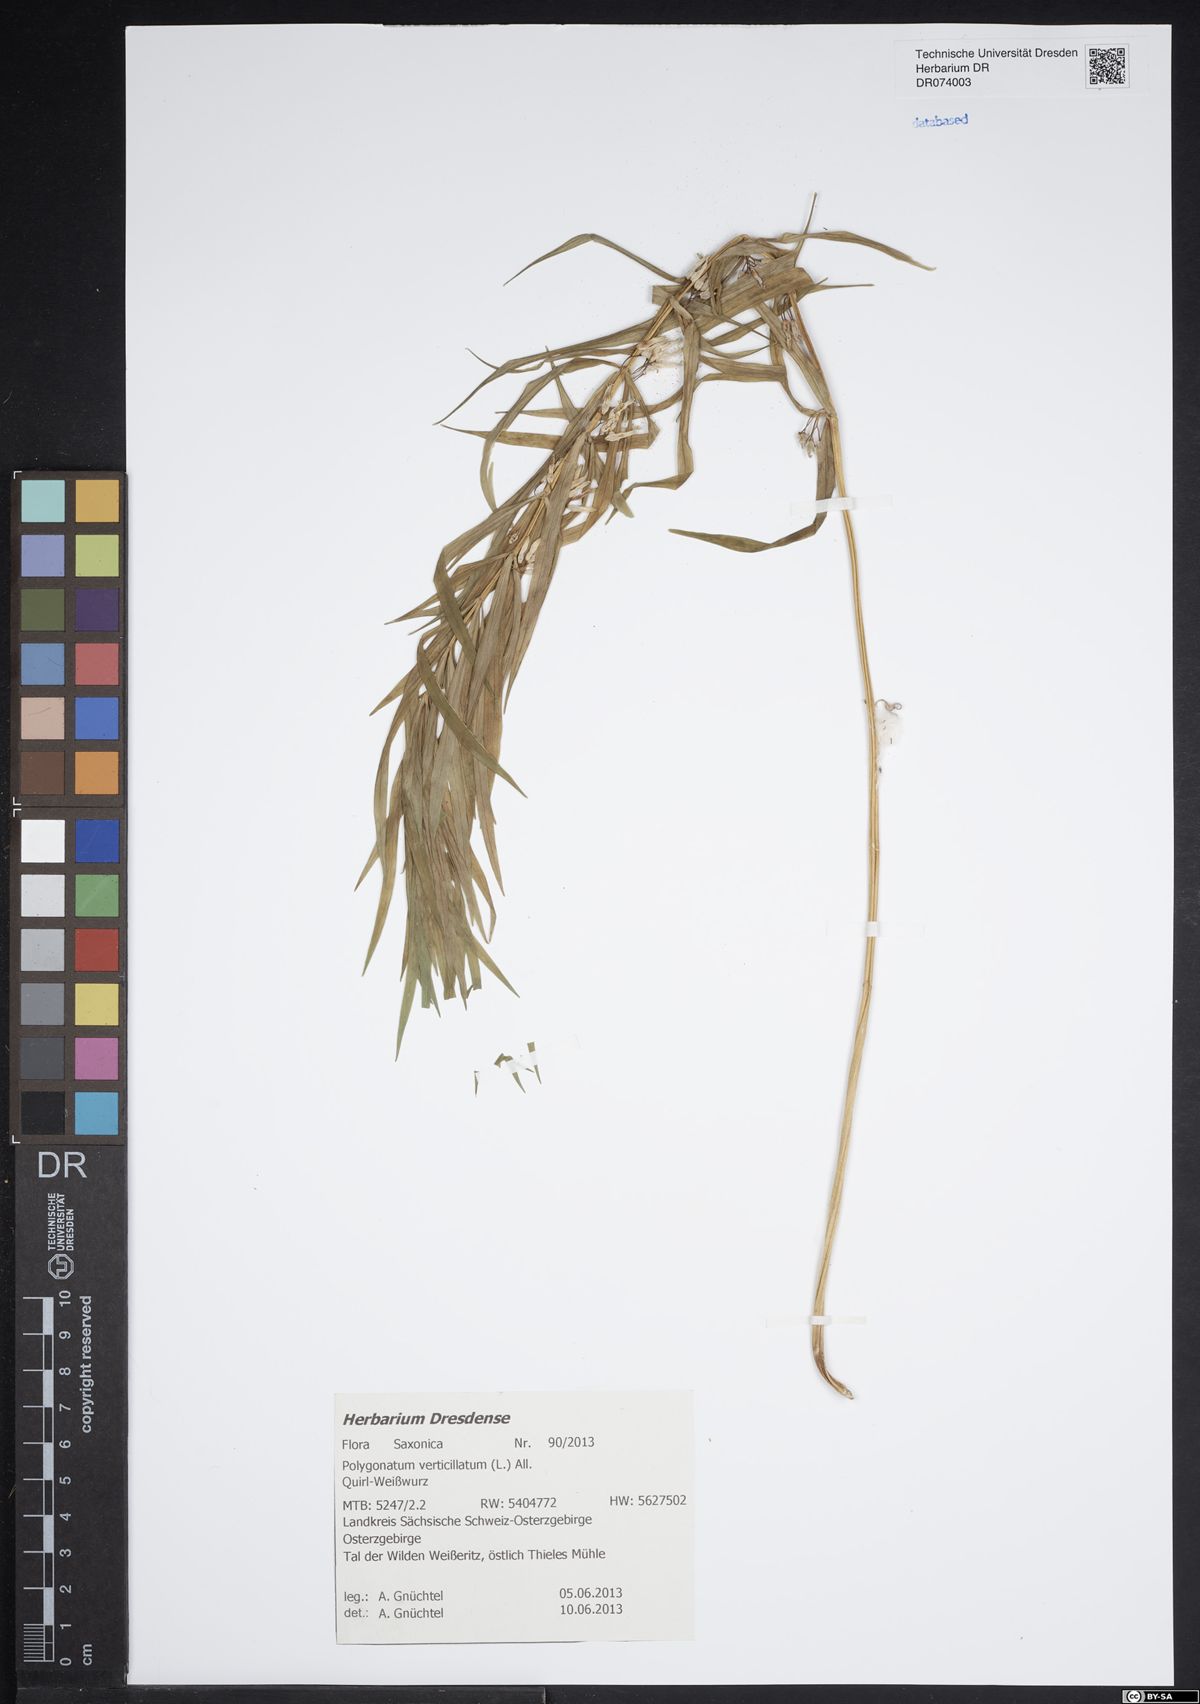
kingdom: Plantae
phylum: Tracheophyta
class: Liliopsida
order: Asparagales
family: Asparagaceae
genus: Polygonatum
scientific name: Polygonatum verticillatum
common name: Whorled solomon's-seal
